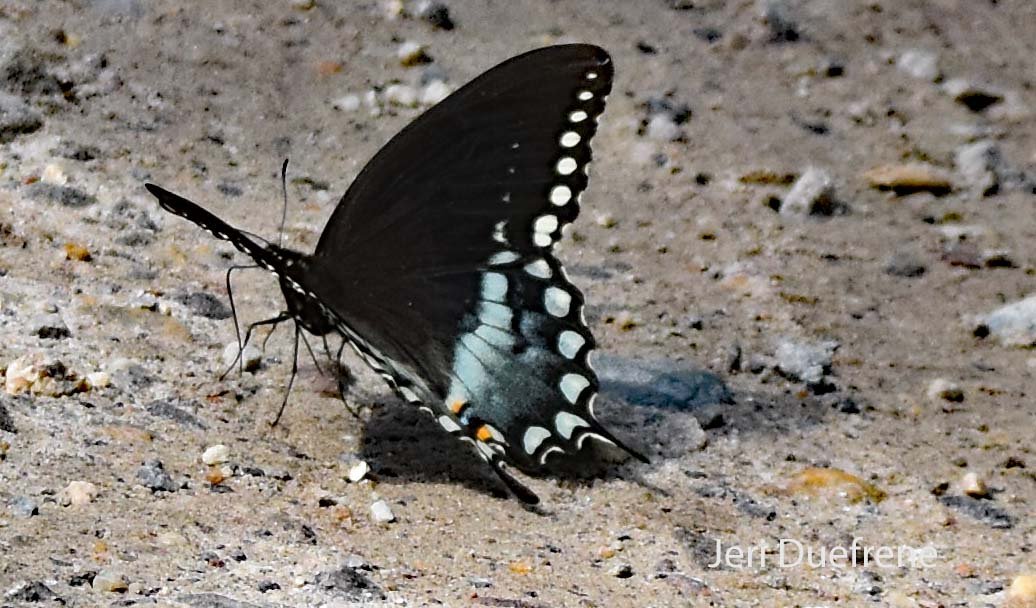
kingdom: Animalia
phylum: Arthropoda
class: Insecta
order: Lepidoptera
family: Papilionidae
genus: Pterourus
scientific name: Pterourus troilus
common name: Spicebush Swallowtail
